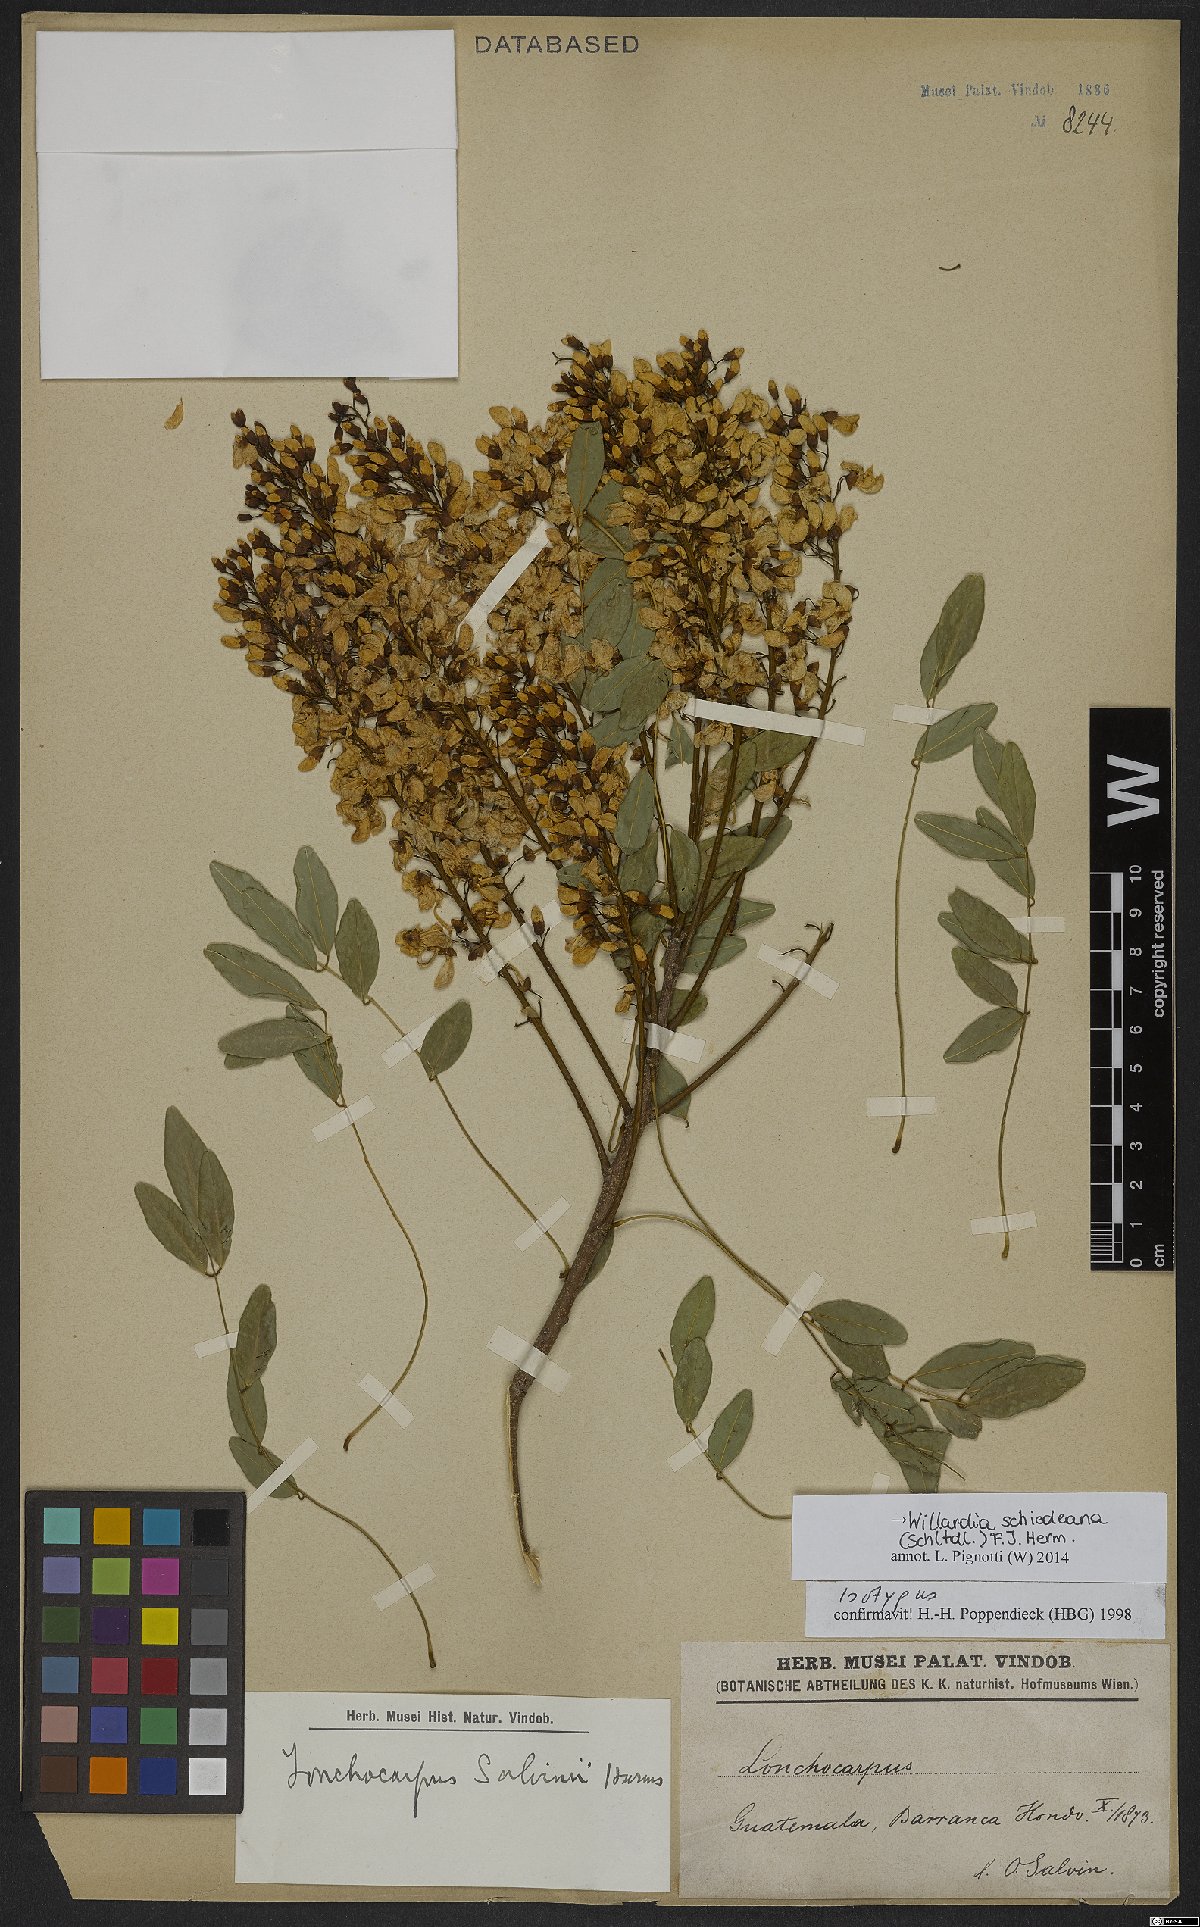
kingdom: Plantae
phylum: Tracheophyta
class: Magnoliopsida
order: Fabales
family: Fabaceae
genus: Lonchocarpus
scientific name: Lonchocarpus schiedeanus
